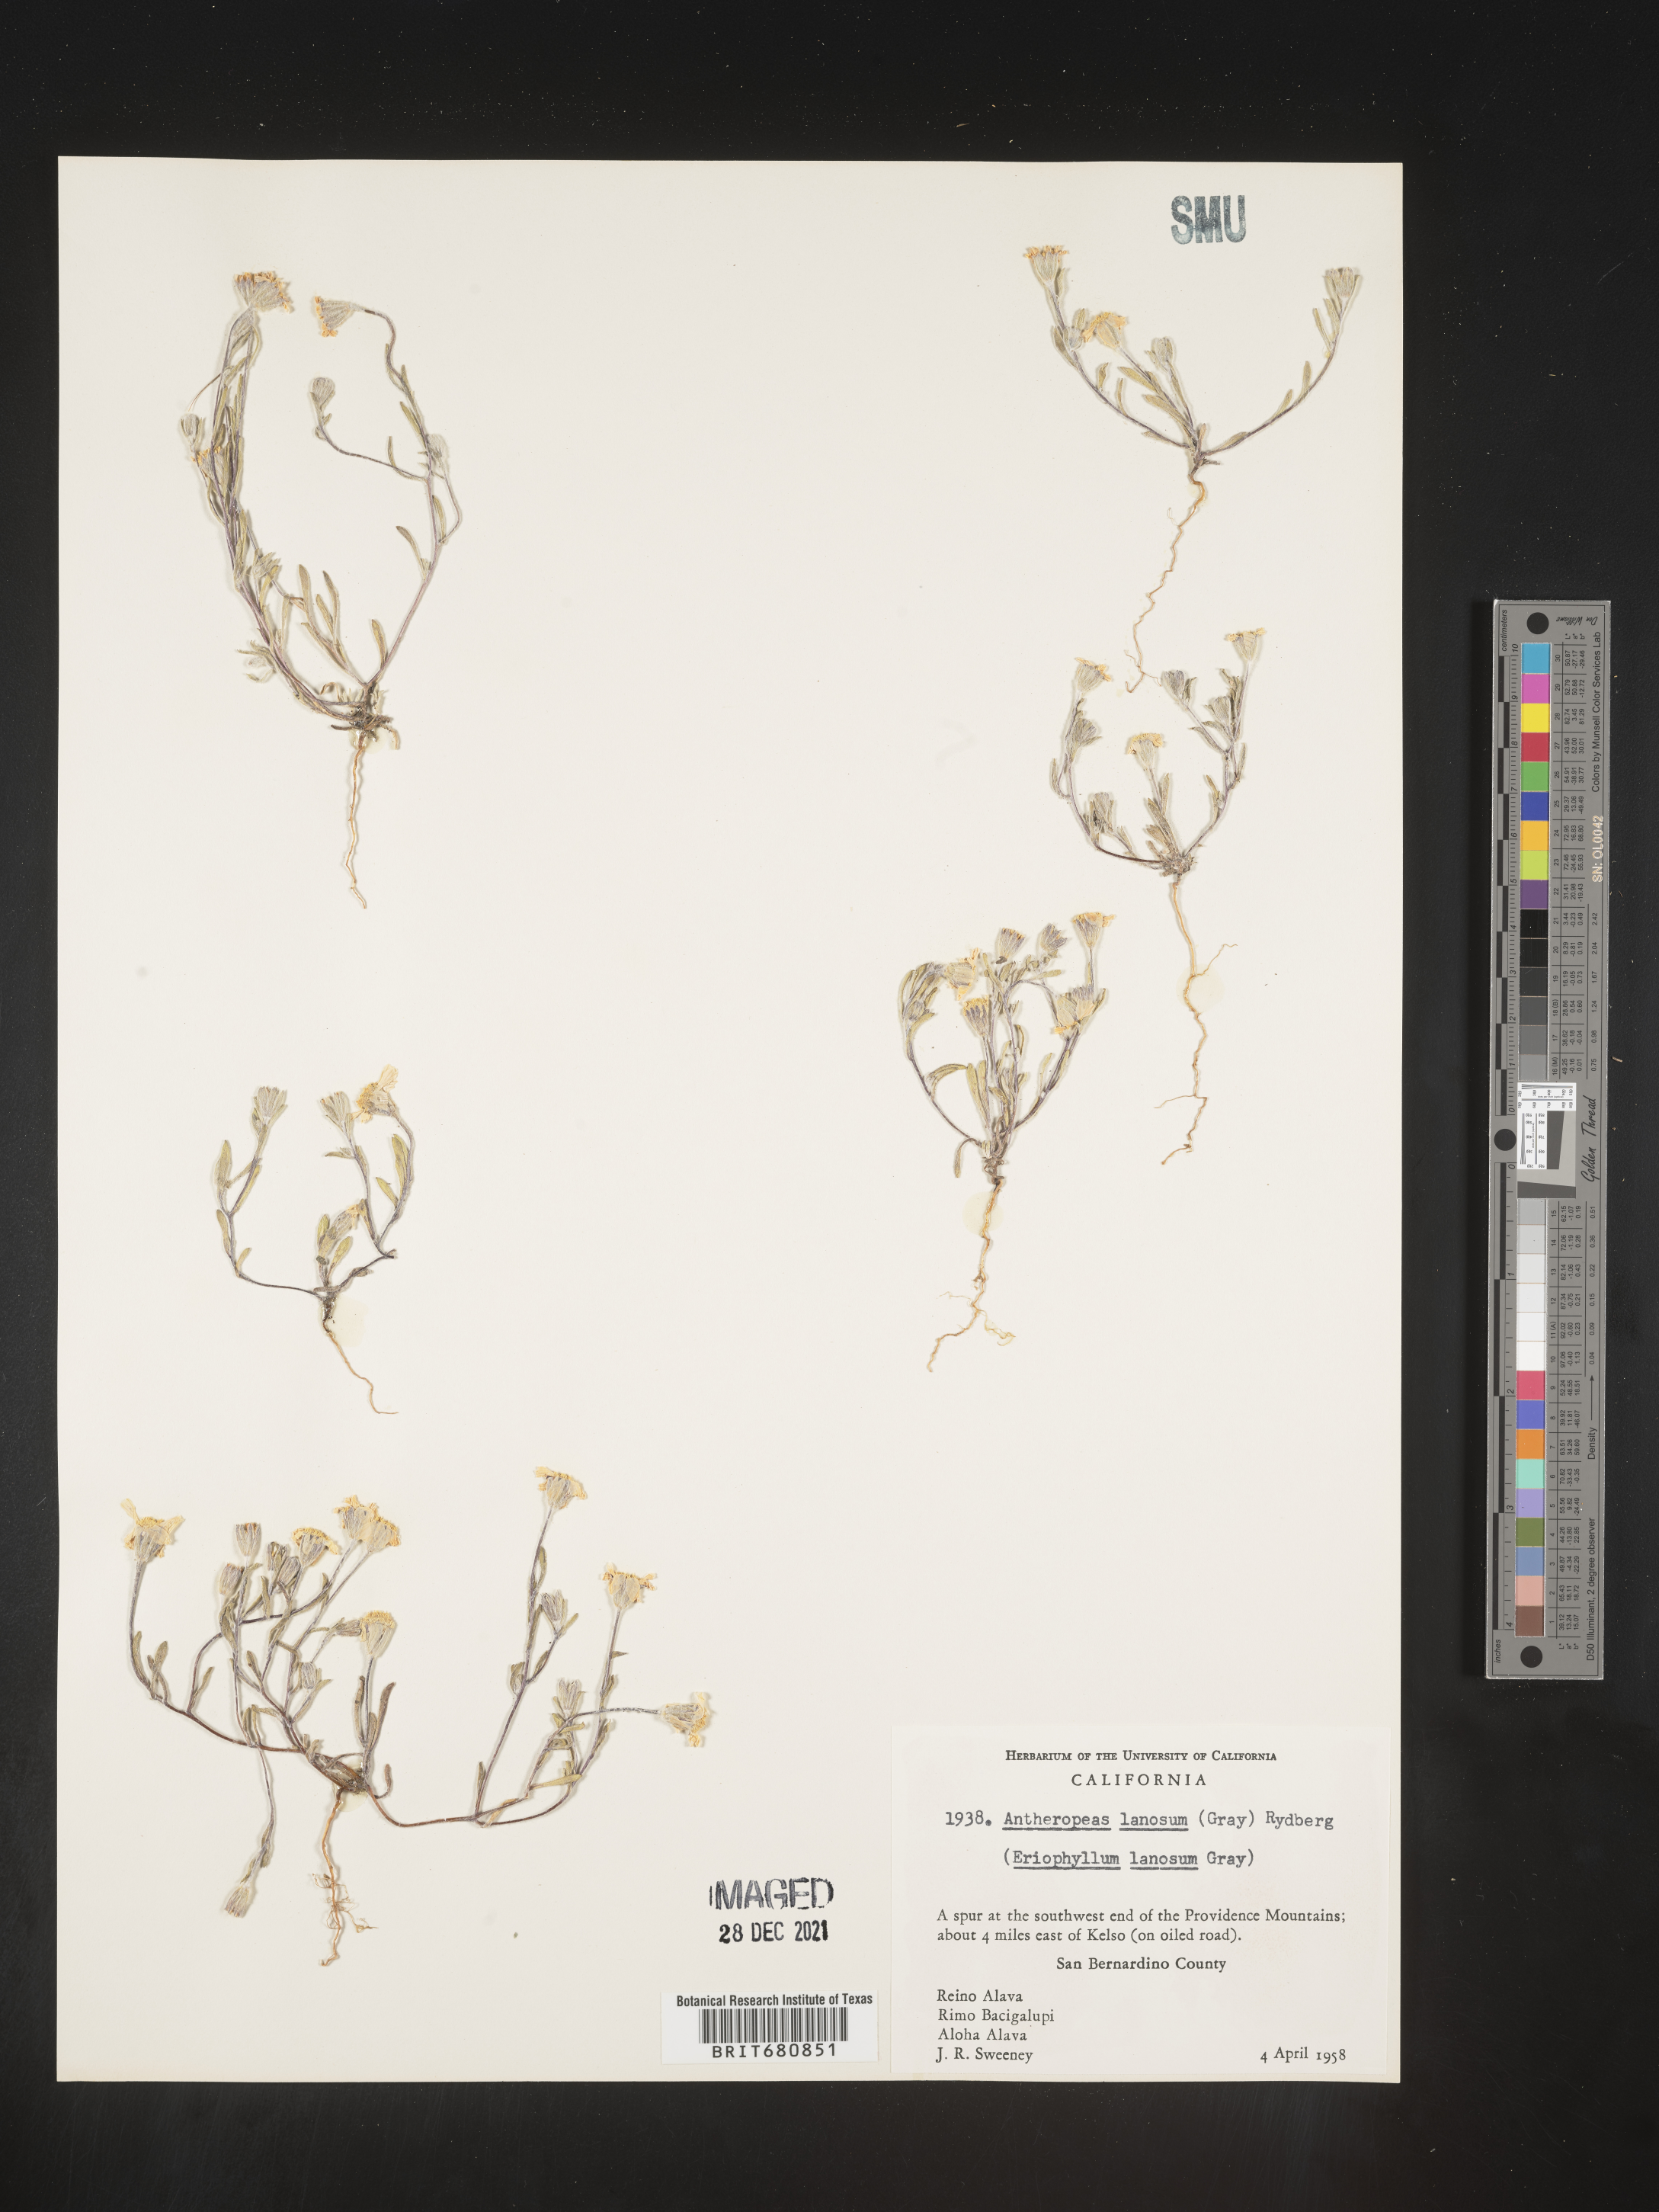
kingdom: Plantae
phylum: Tracheophyta
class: Magnoliopsida
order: Asterales
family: Asteraceae
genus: Eriophyllum
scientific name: Eriophyllum lanosum
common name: White easter-bonnets
